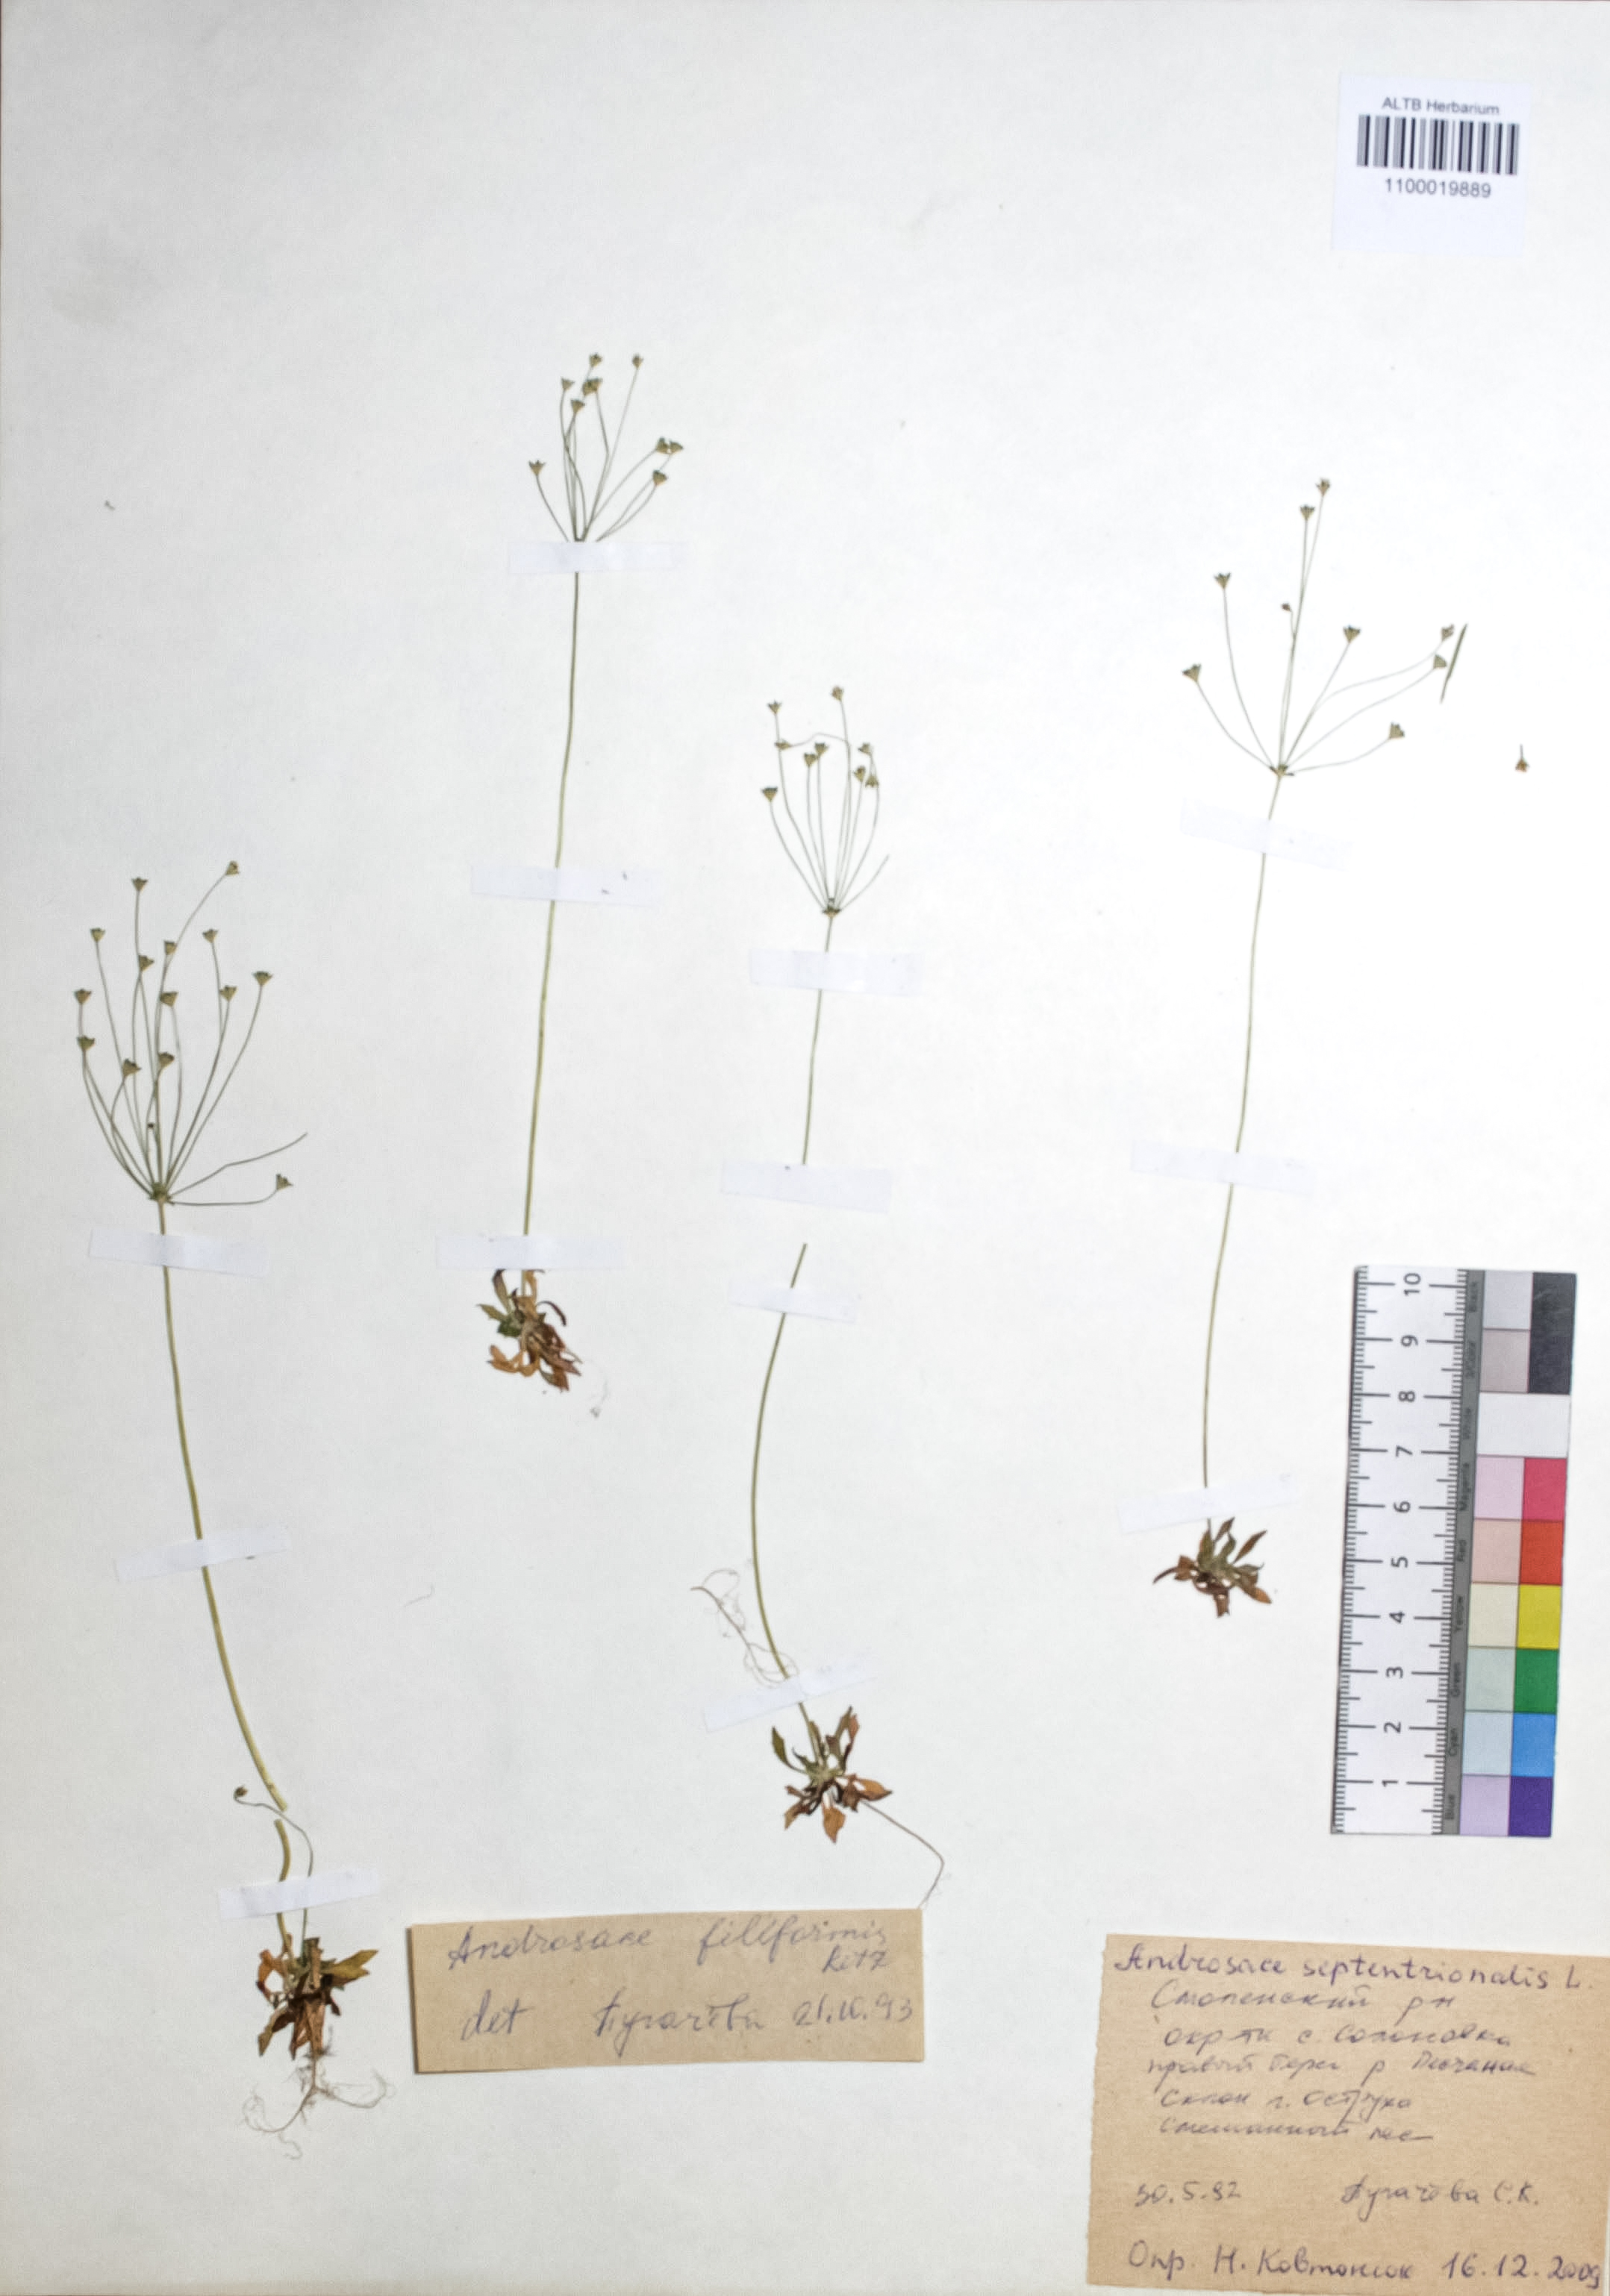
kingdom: Plantae
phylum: Tracheophyta
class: Magnoliopsida
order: Ericales
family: Primulaceae
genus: Androsace
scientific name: Androsace septentrionalis
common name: Hairy northern fairy-candelabra
